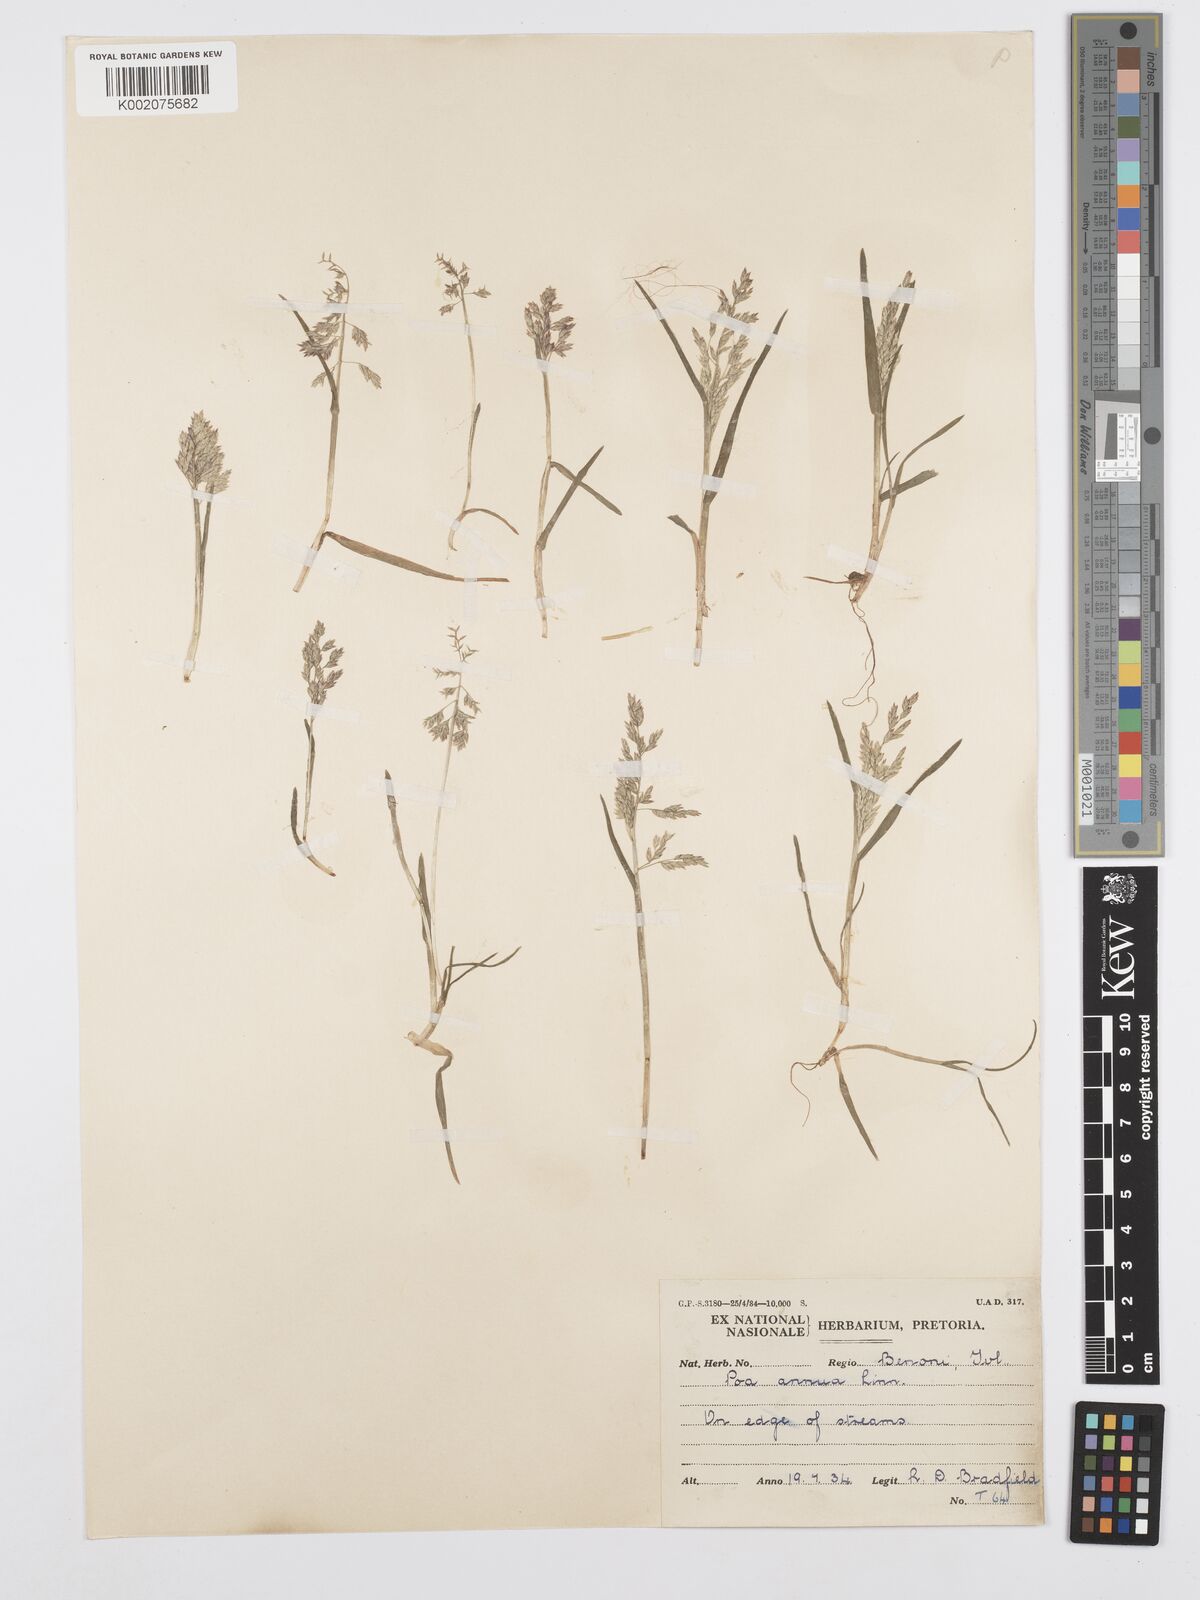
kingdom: Plantae
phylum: Tracheophyta
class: Liliopsida
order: Poales
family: Poaceae
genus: Poa
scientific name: Poa annua
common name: Annual bluegrass
